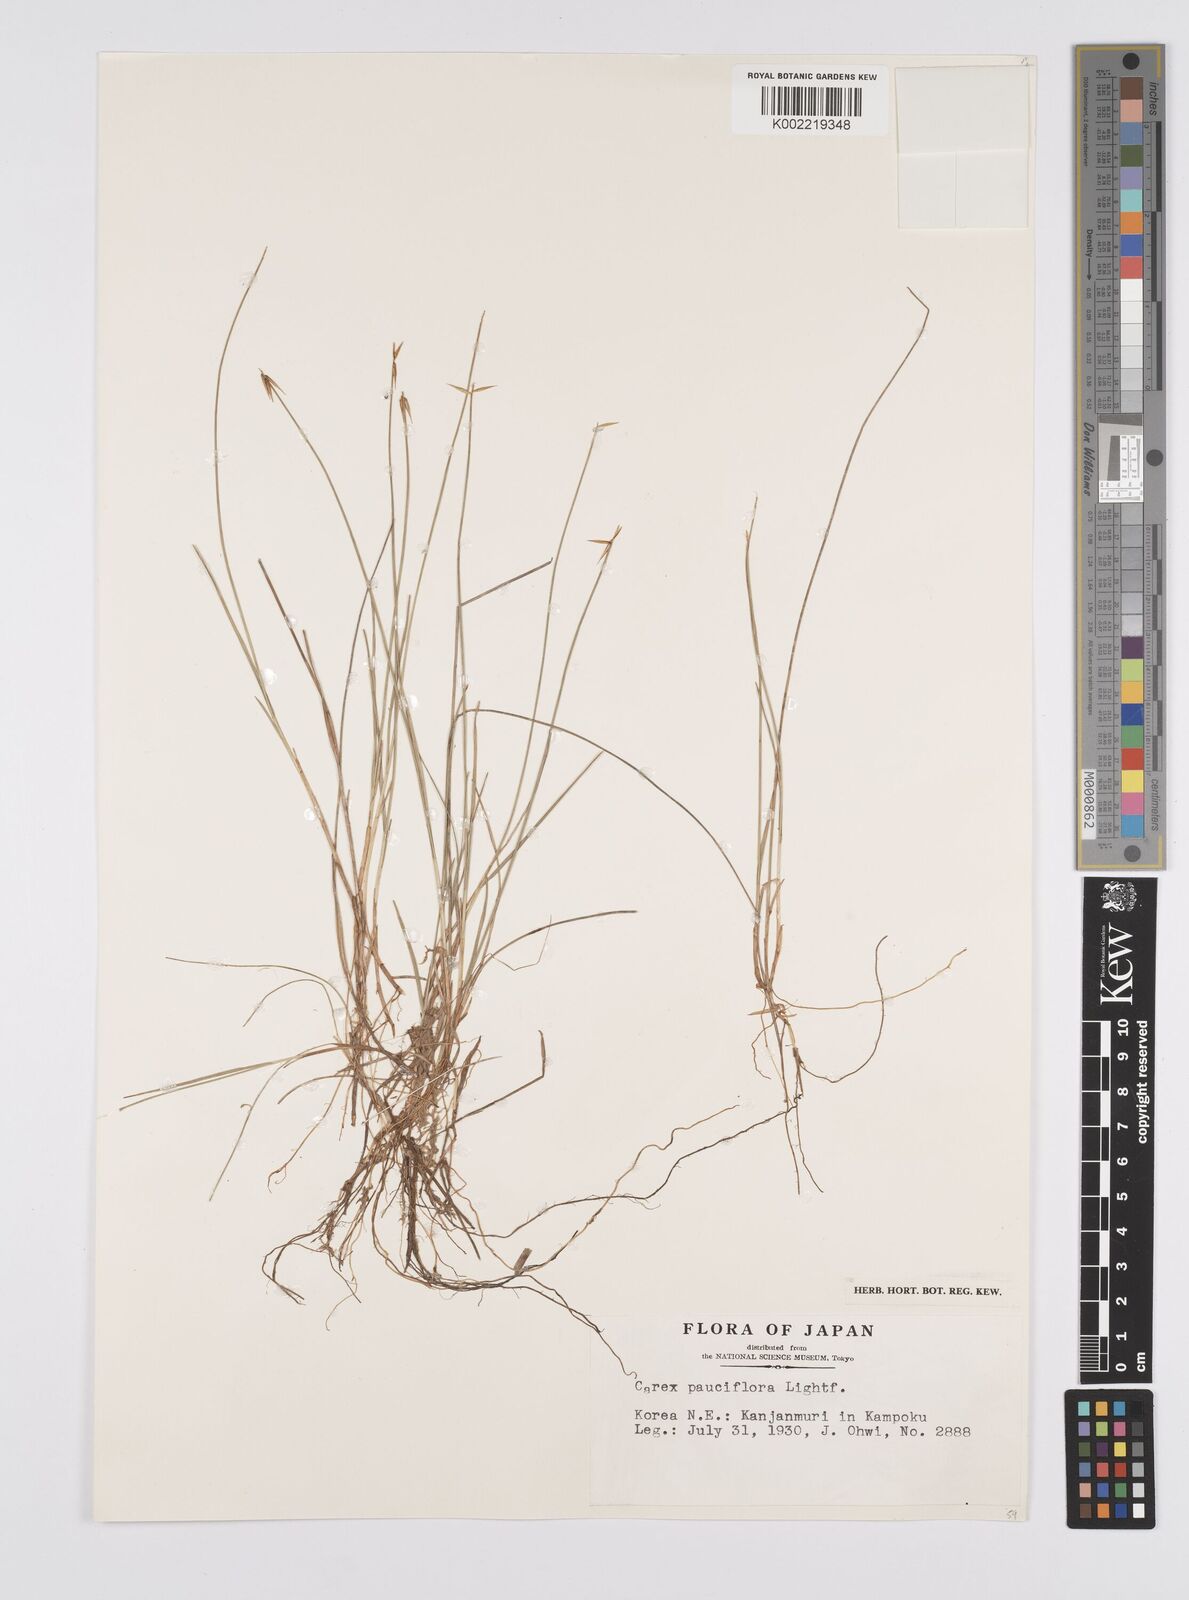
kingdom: Plantae
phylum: Tracheophyta
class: Liliopsida
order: Poales
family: Cyperaceae
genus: Carex
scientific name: Carex pauciflora
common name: Few-flowered sedge
